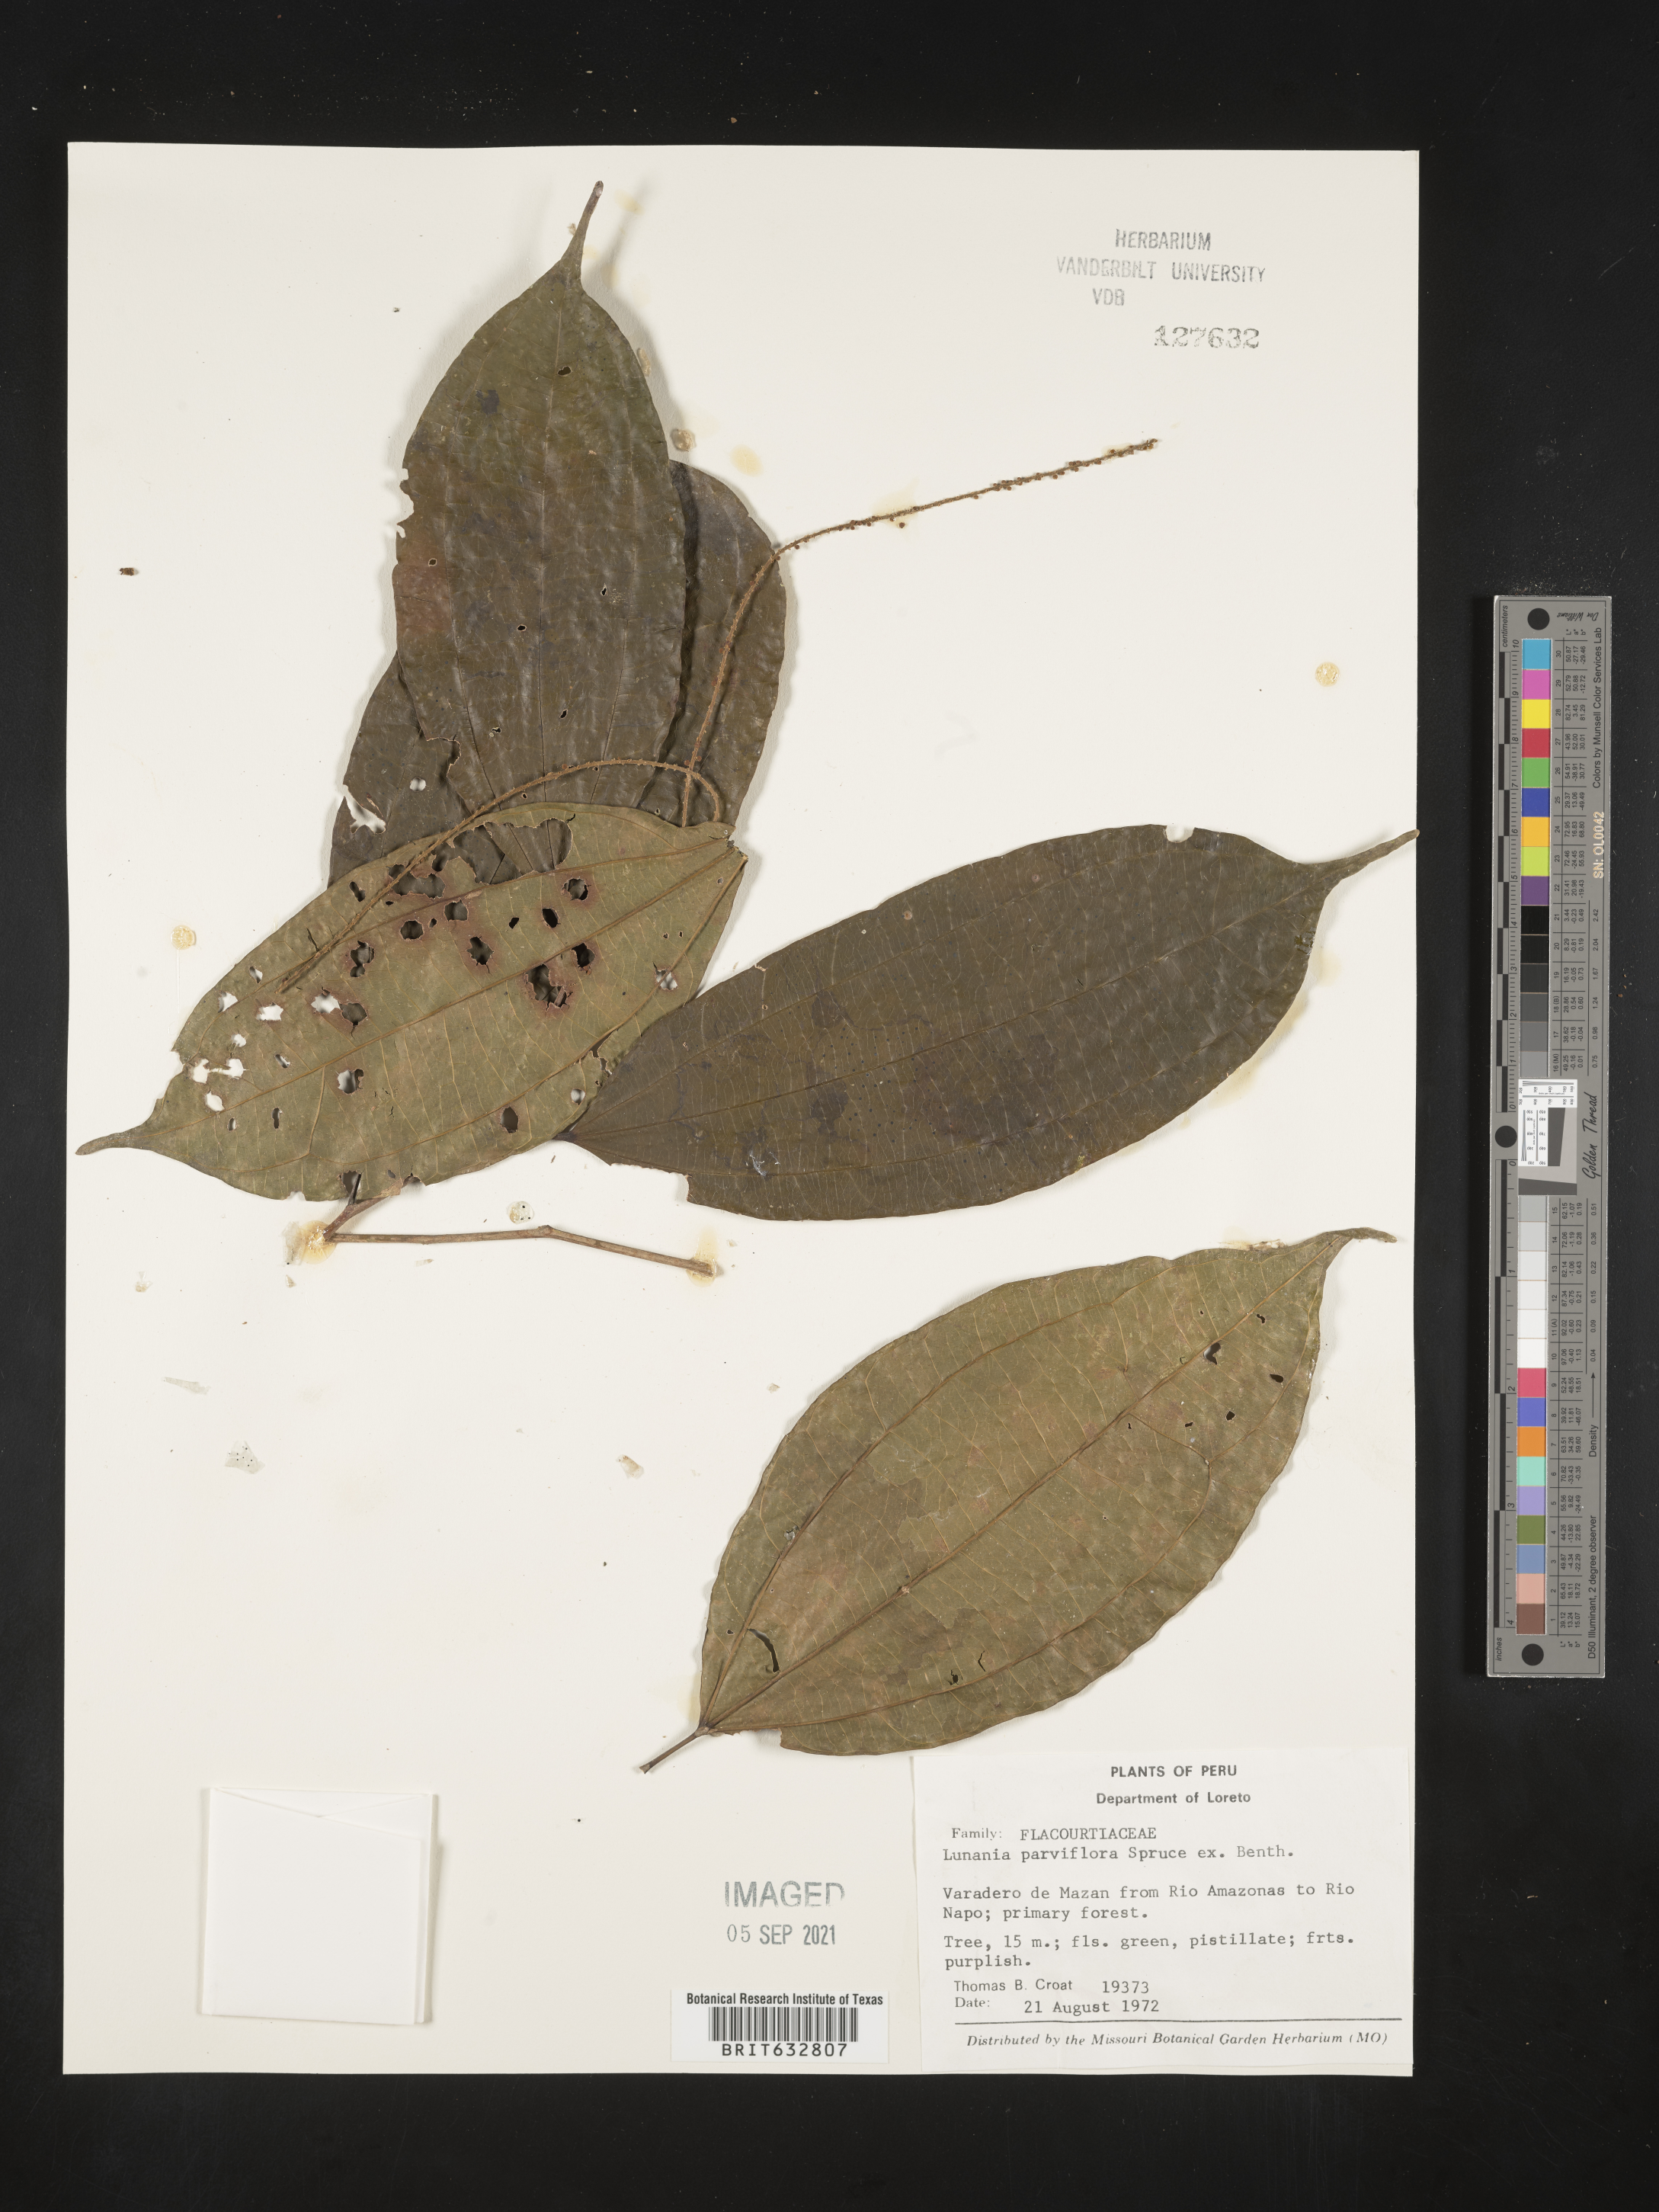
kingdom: Plantae
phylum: Tracheophyta
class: Magnoliopsida
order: Malpighiales
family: Salicaceae
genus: Lunania
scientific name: Lunania
